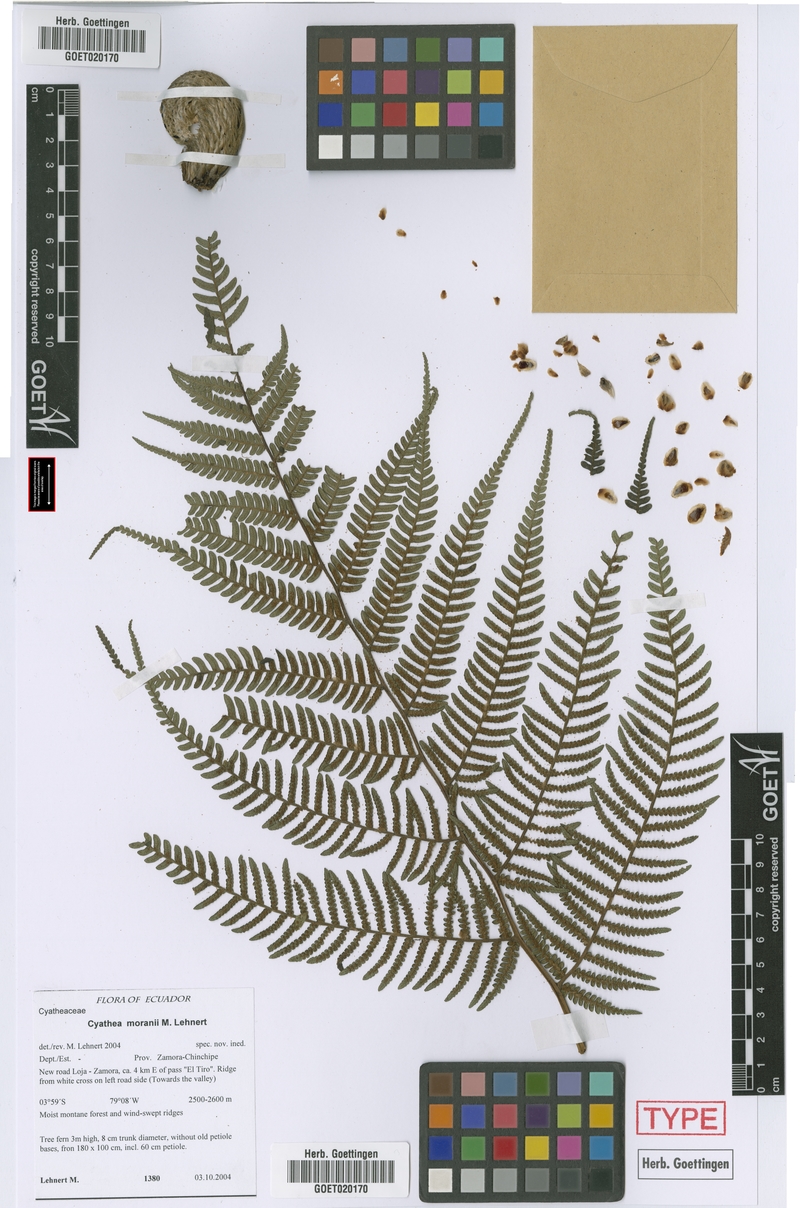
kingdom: Plantae
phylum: Tracheophyta
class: Polypodiopsida
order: Cyatheales
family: Cyatheaceae
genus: Cyathea
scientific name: Cyathea moranii
